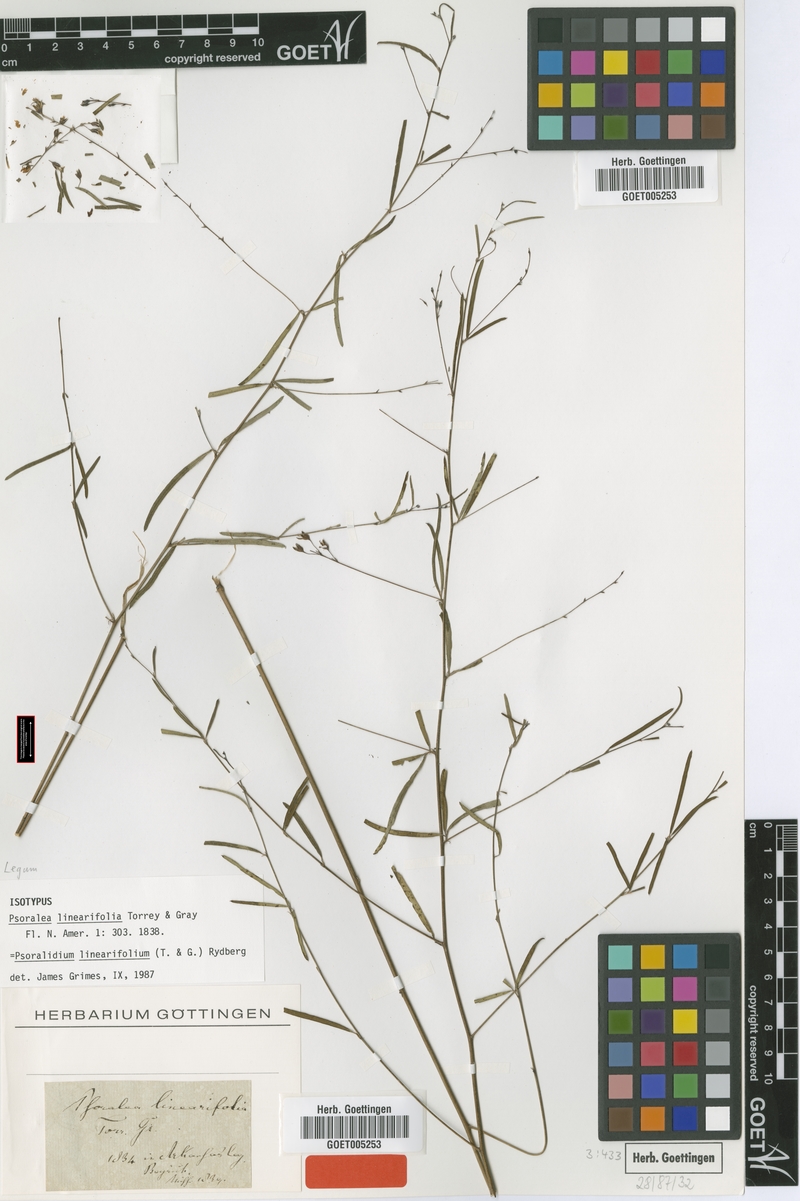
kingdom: Plantae
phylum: Tracheophyta
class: Magnoliopsida
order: Fabales
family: Fabaceae
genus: Pediomelum
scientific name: Pediomelum linearifolium
